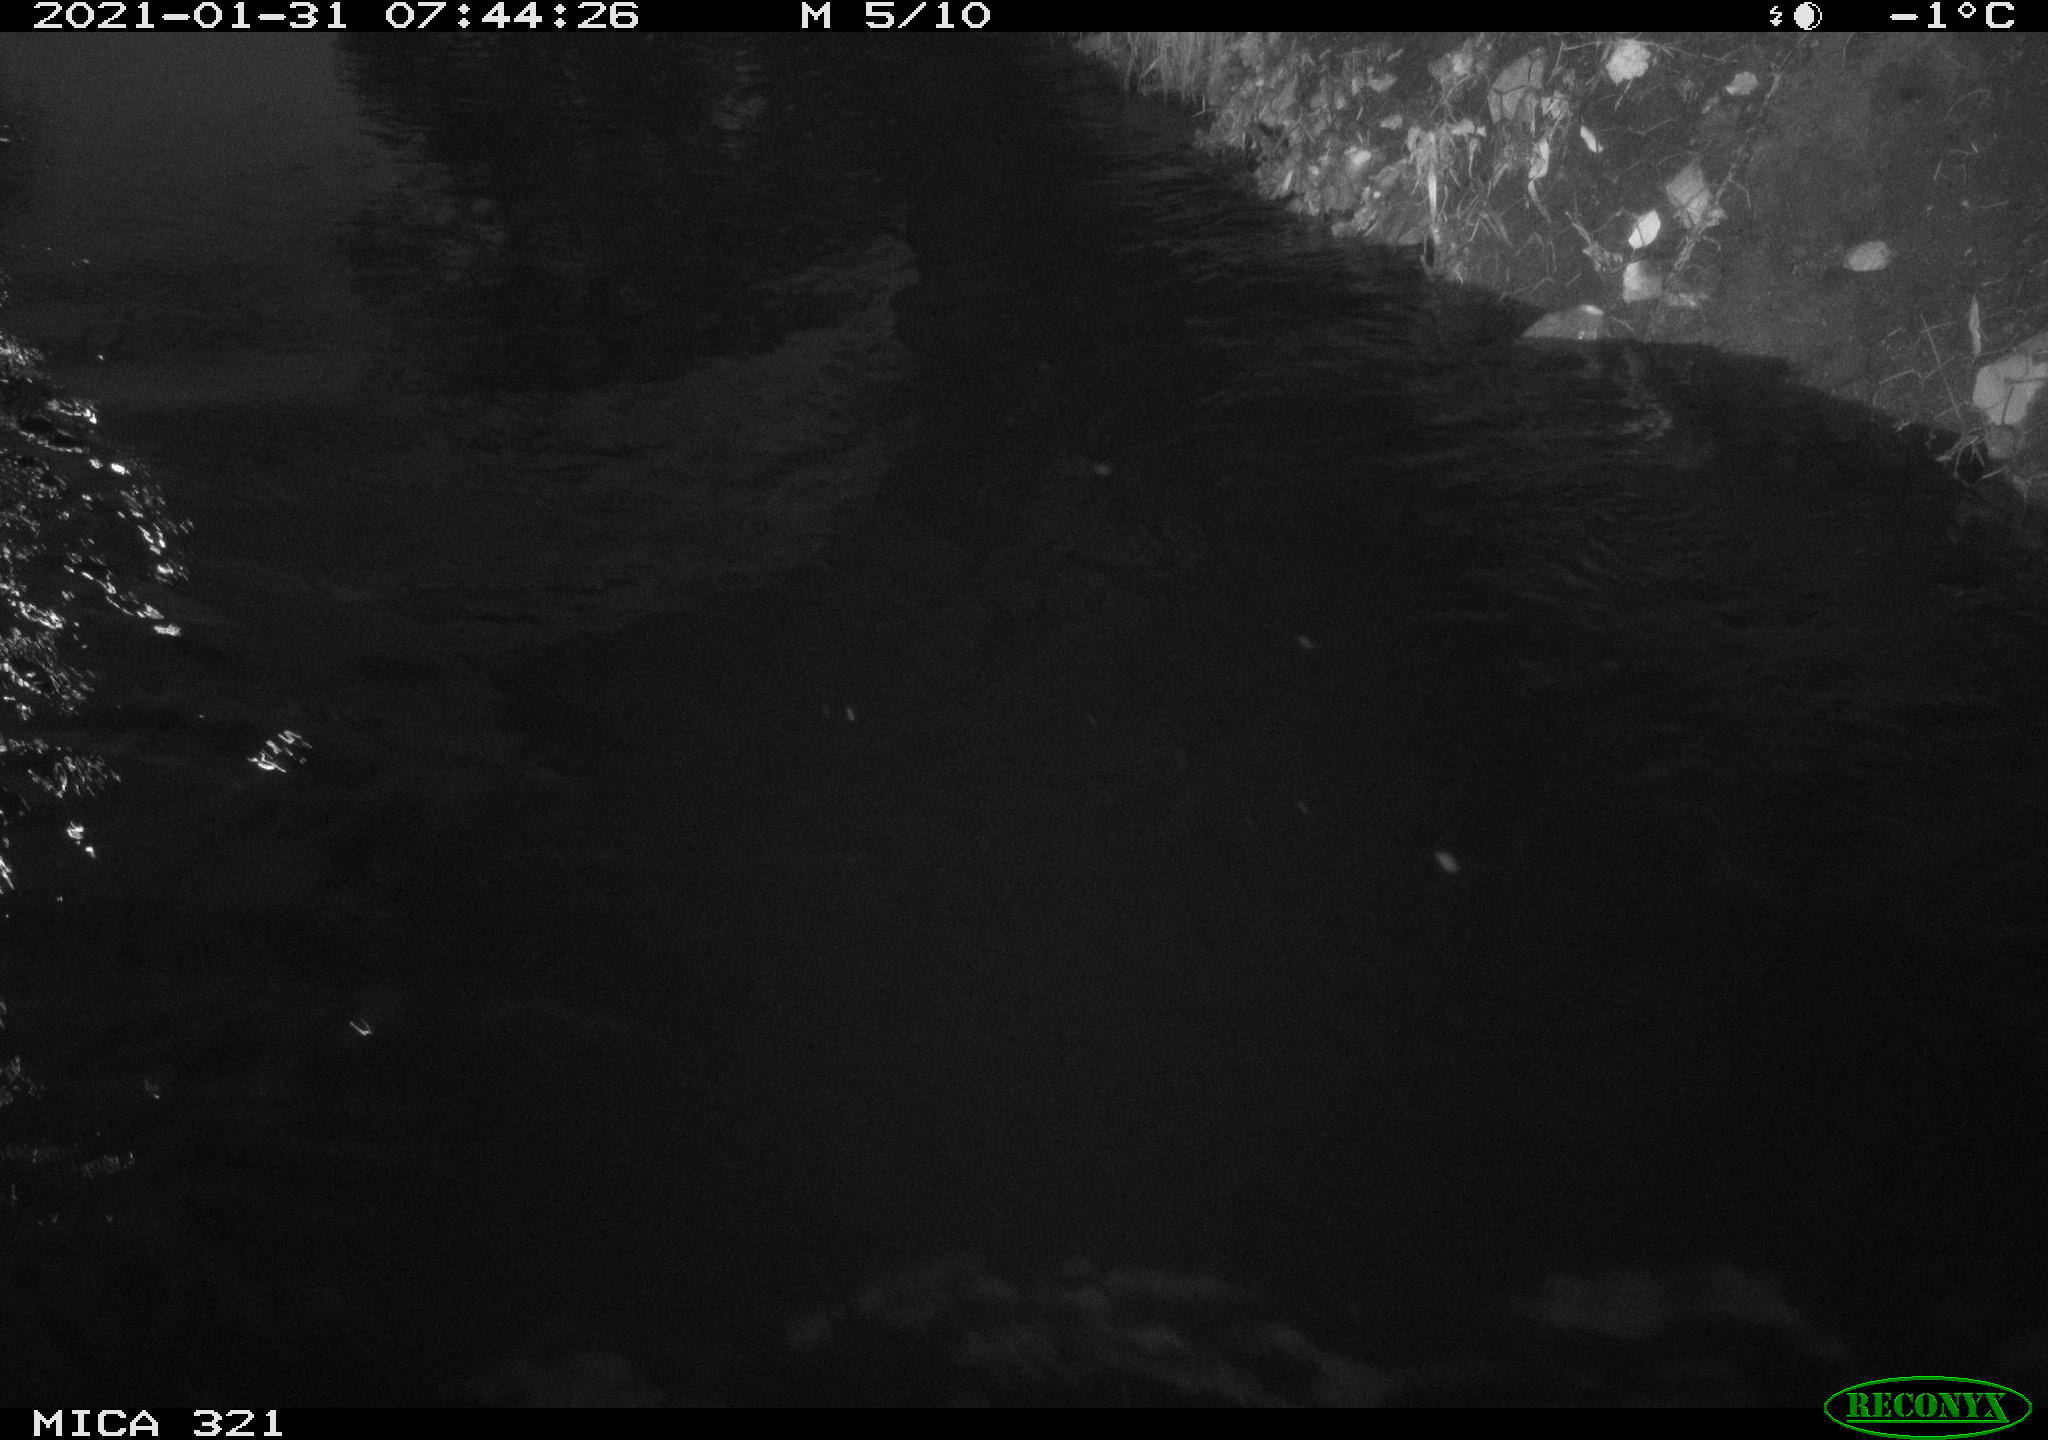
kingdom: Animalia
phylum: Chordata
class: Aves
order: Anseriformes
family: Anatidae
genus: Anas
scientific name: Anas platyrhynchos
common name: Mallard
